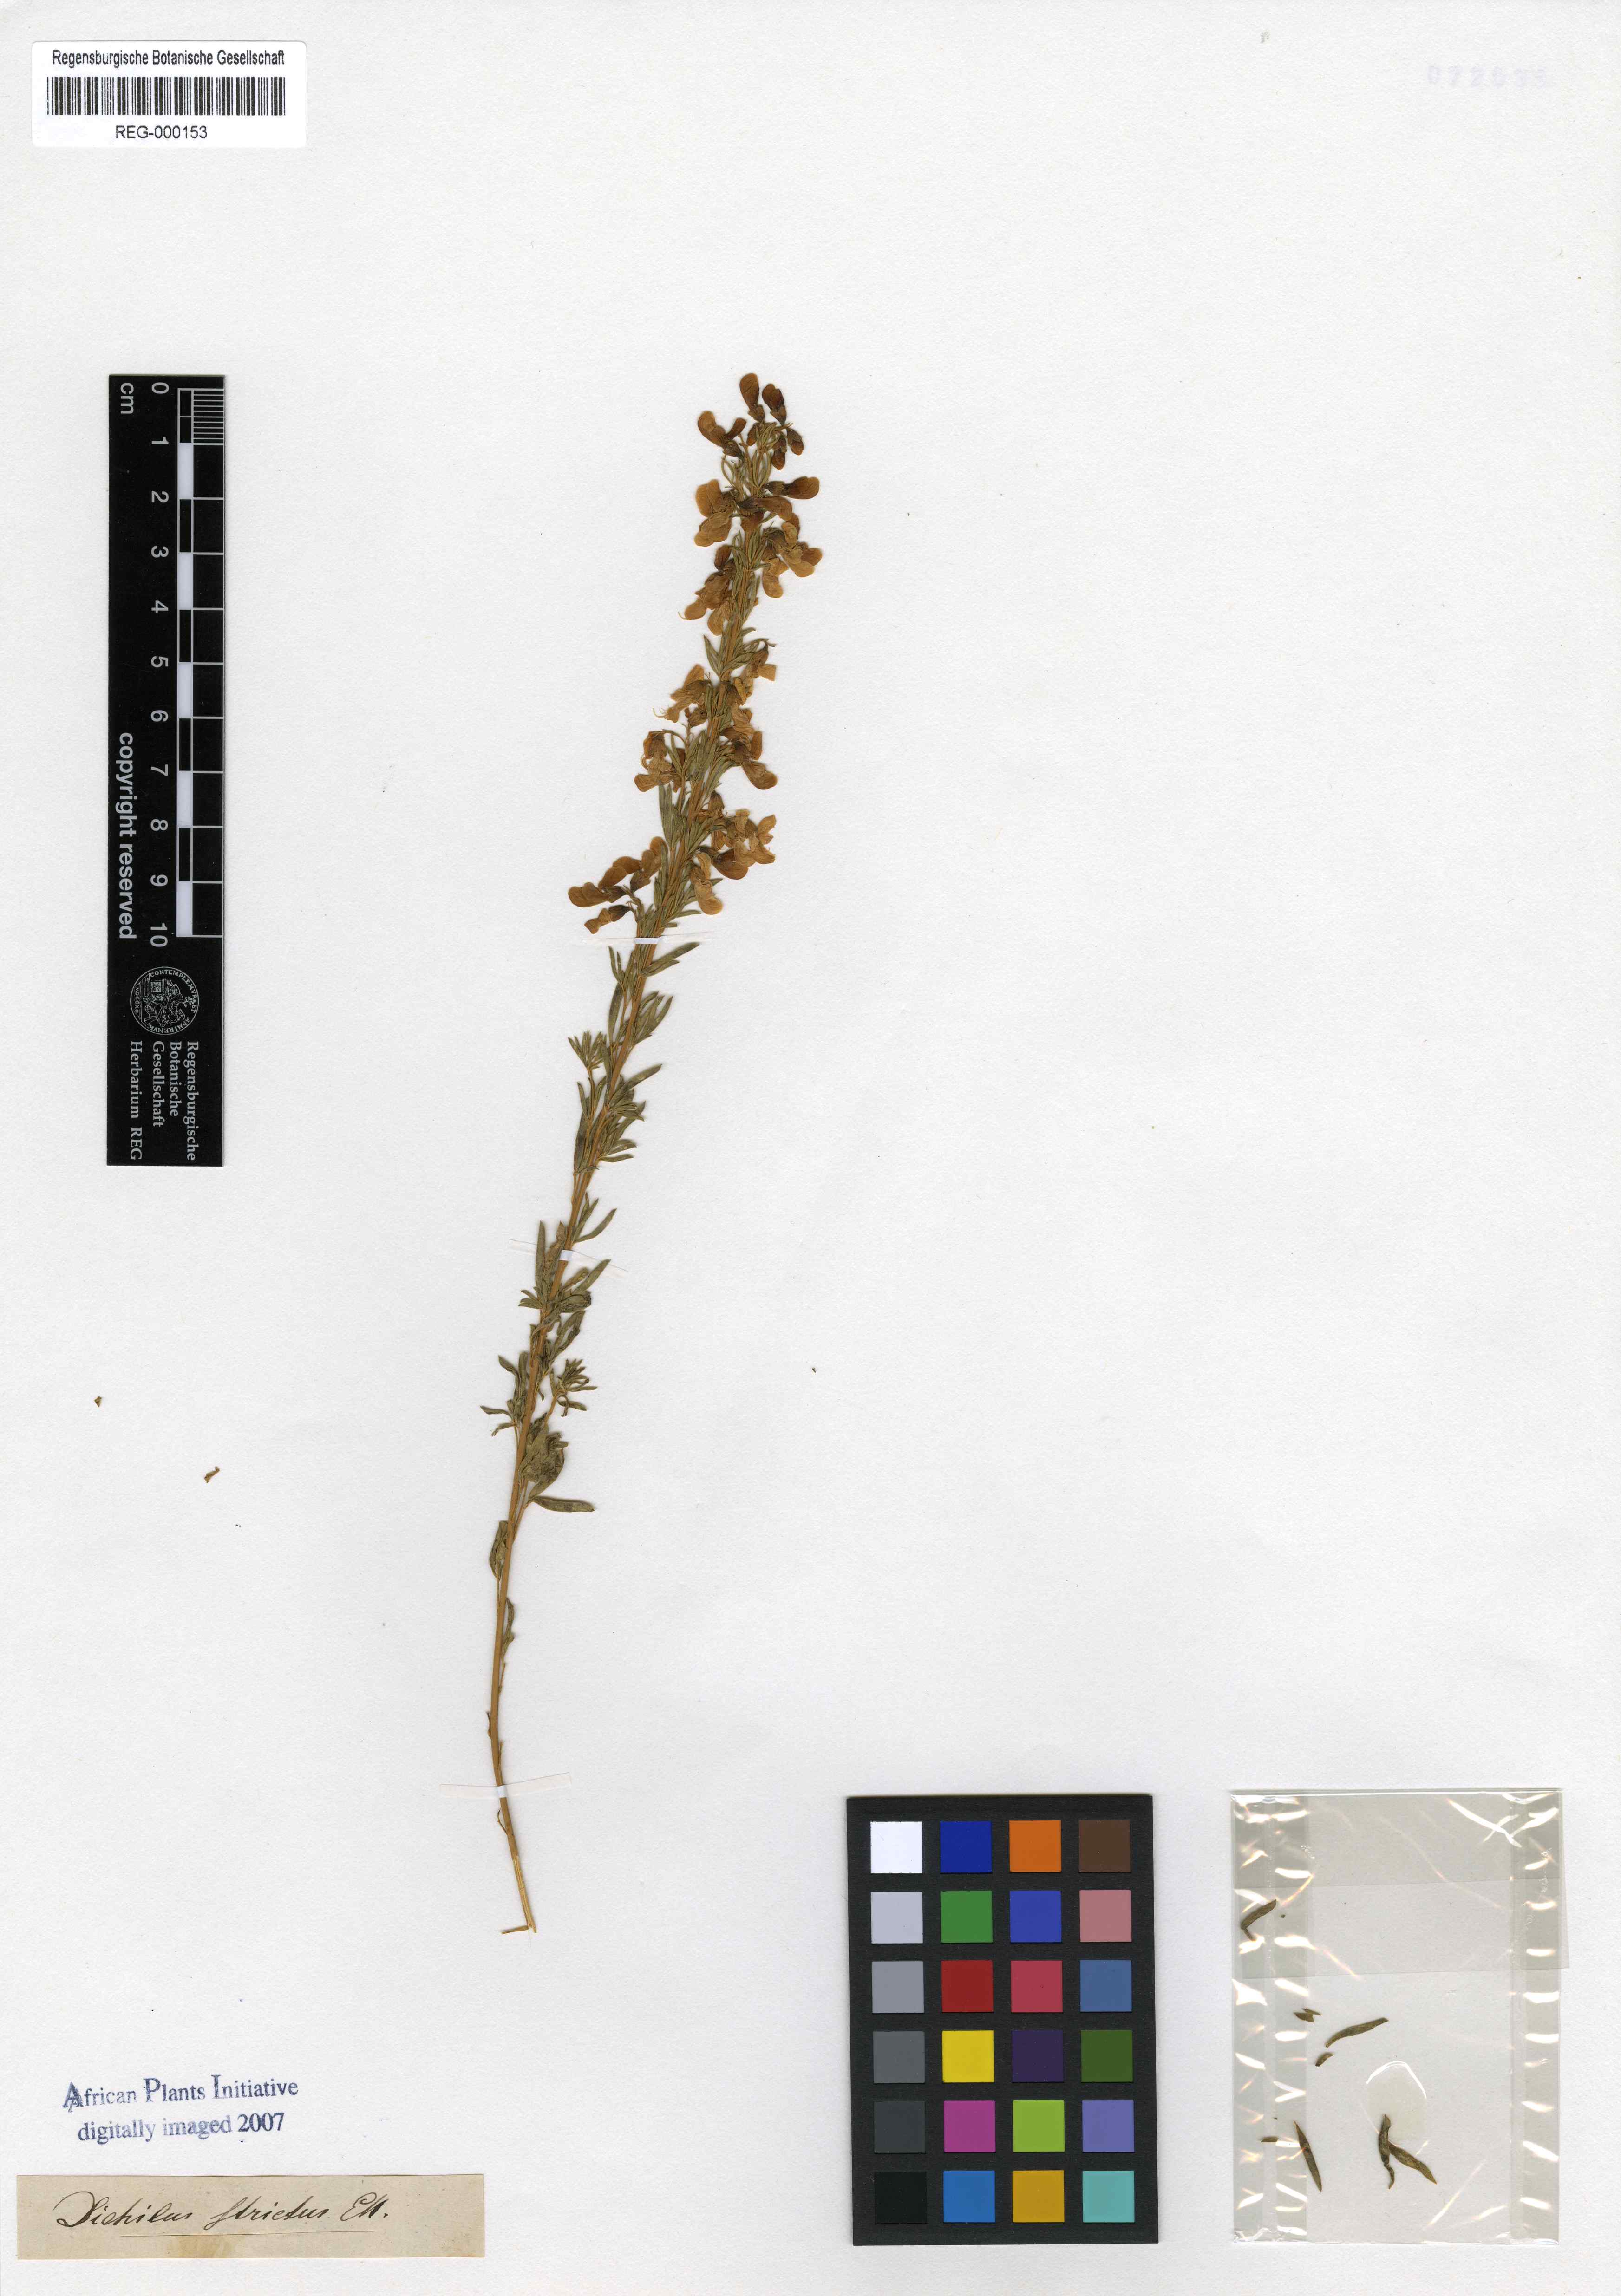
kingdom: Plantae
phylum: Tracheophyta
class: Magnoliopsida
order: Fabales
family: Fabaceae
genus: Dichilus
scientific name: Dichilus strictus
